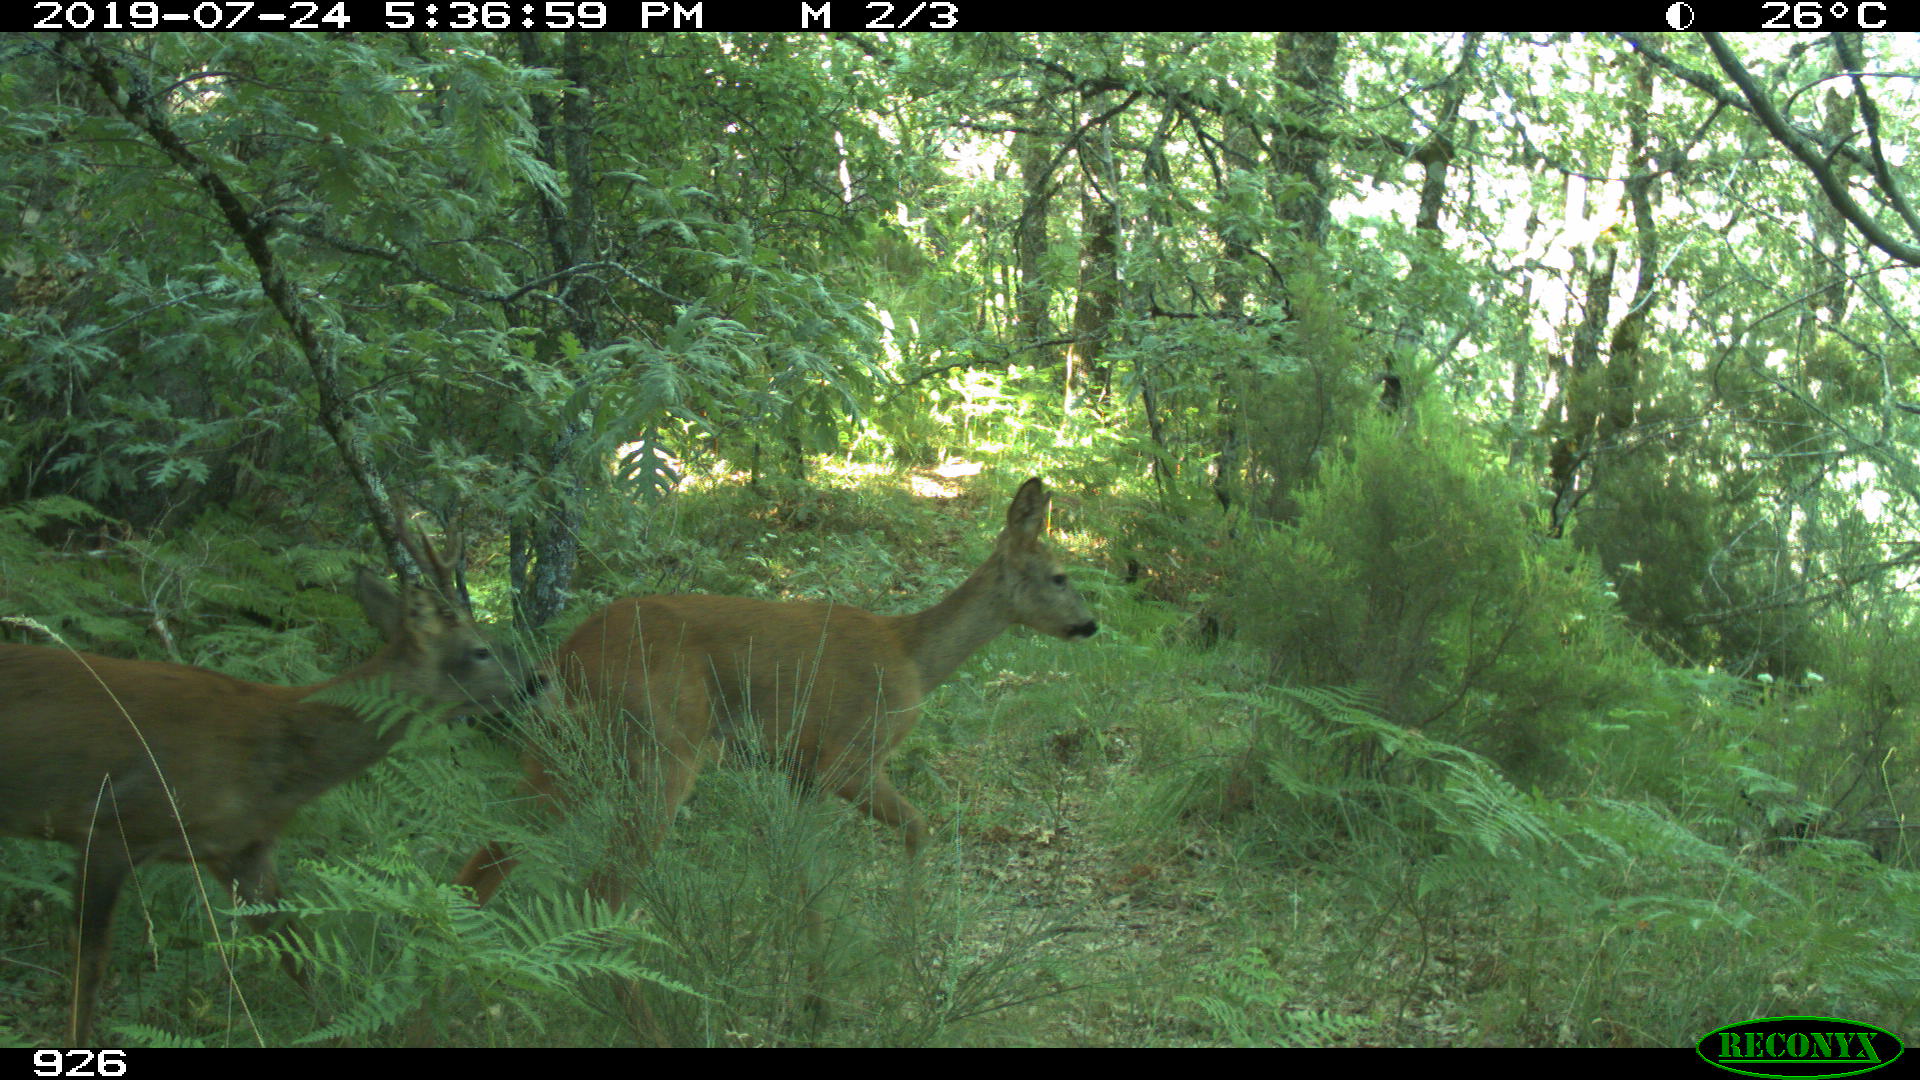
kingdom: Animalia
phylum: Chordata
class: Mammalia
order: Artiodactyla
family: Cervidae
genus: Capreolus
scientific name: Capreolus capreolus
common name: Western roe deer
